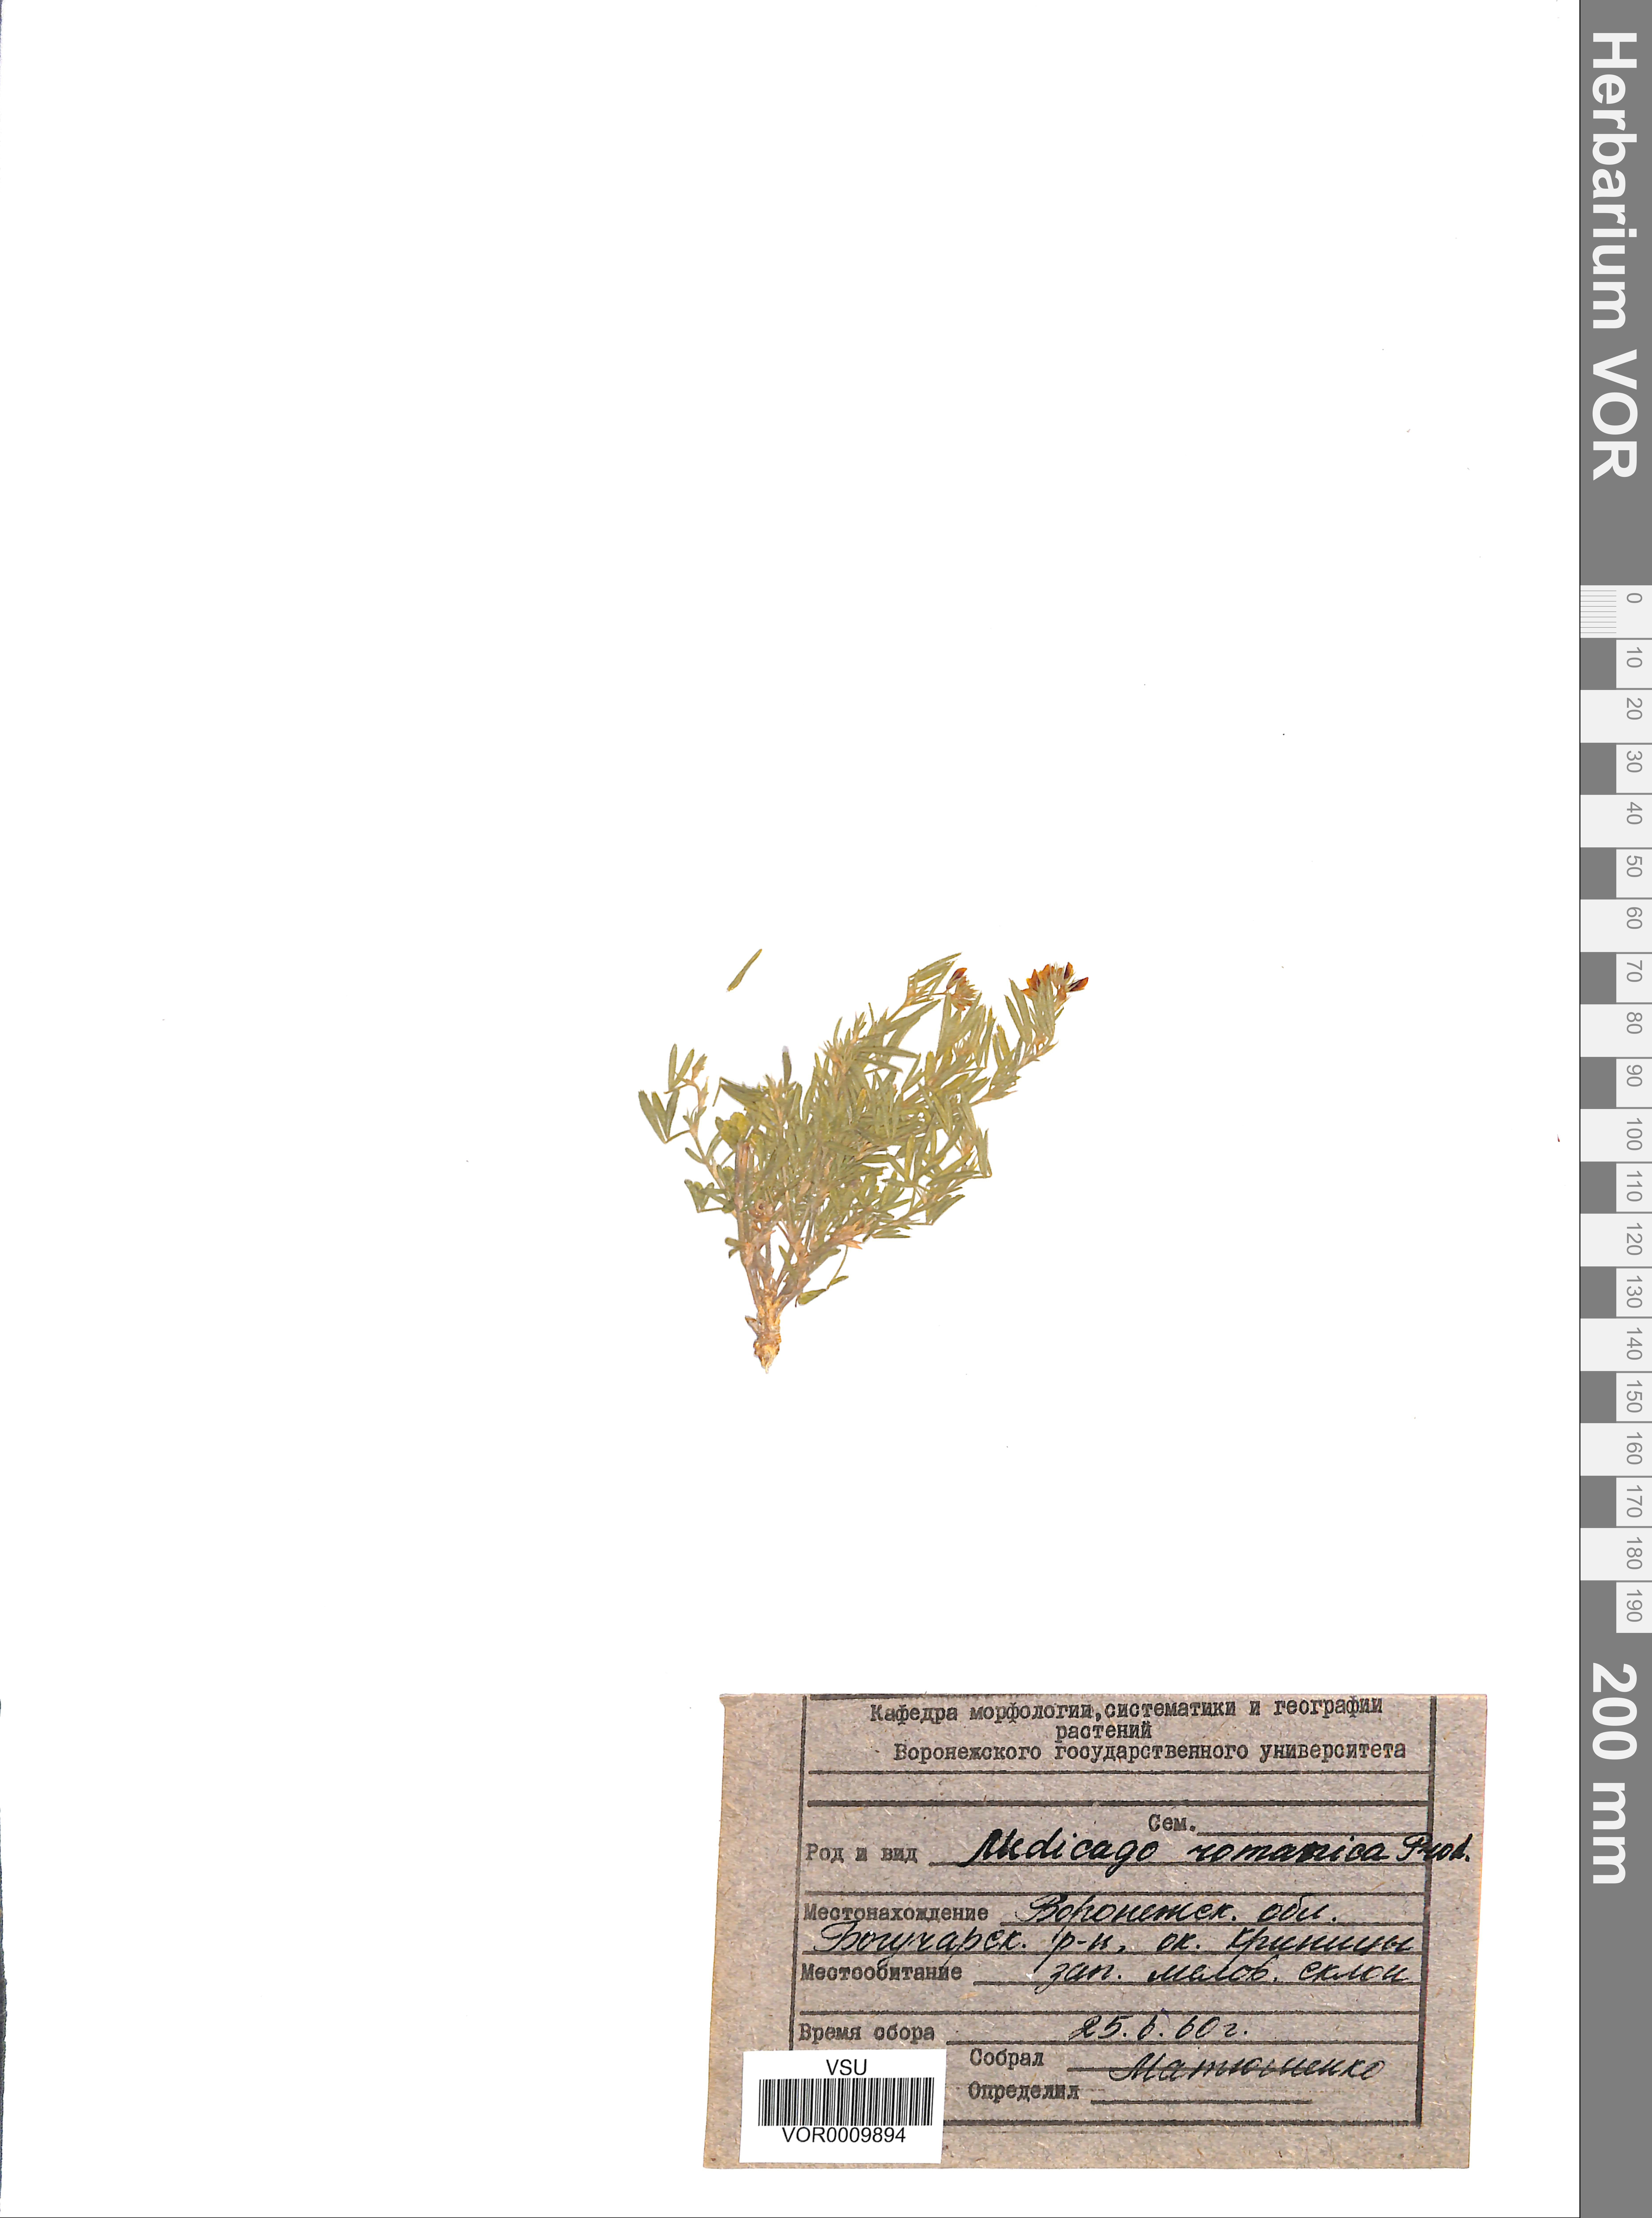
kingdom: Plantae
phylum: Tracheophyta
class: Magnoliopsida
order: Fabales
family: Fabaceae
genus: Medicago
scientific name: Medicago falcata
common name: Sickle medick
